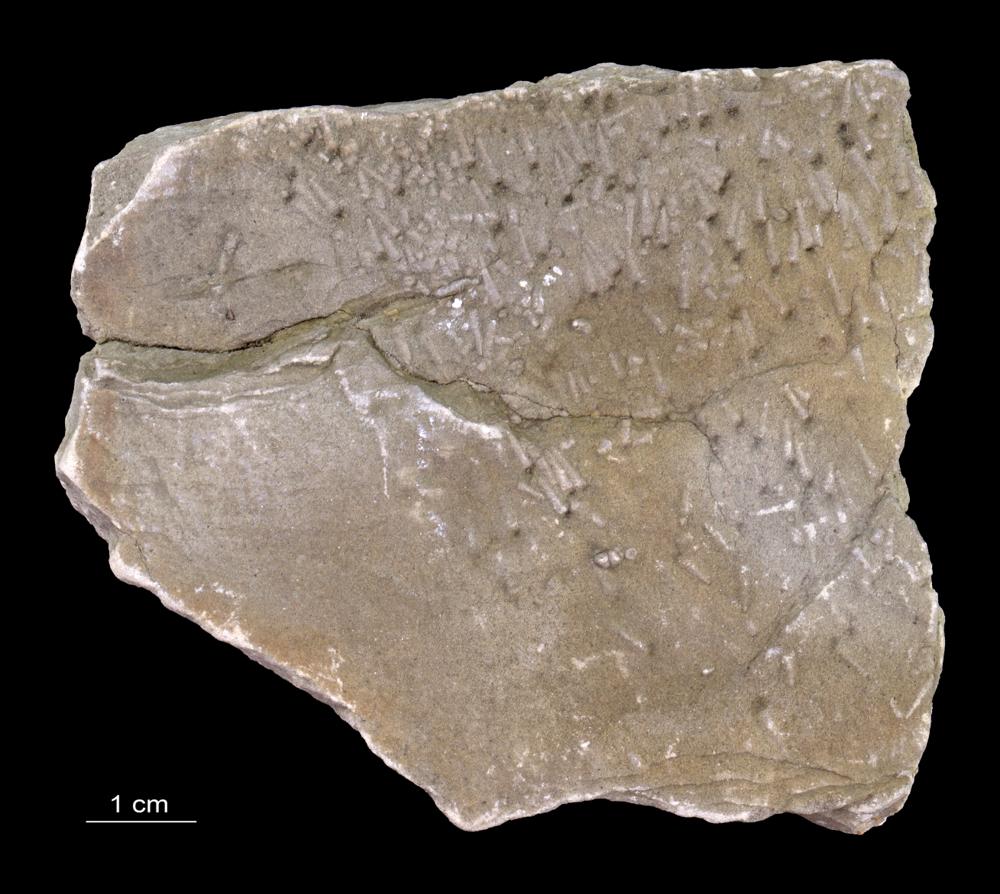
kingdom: Animalia
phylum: Annelida
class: Polychaeta
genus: Volborthella
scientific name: Volborthella tenuis
